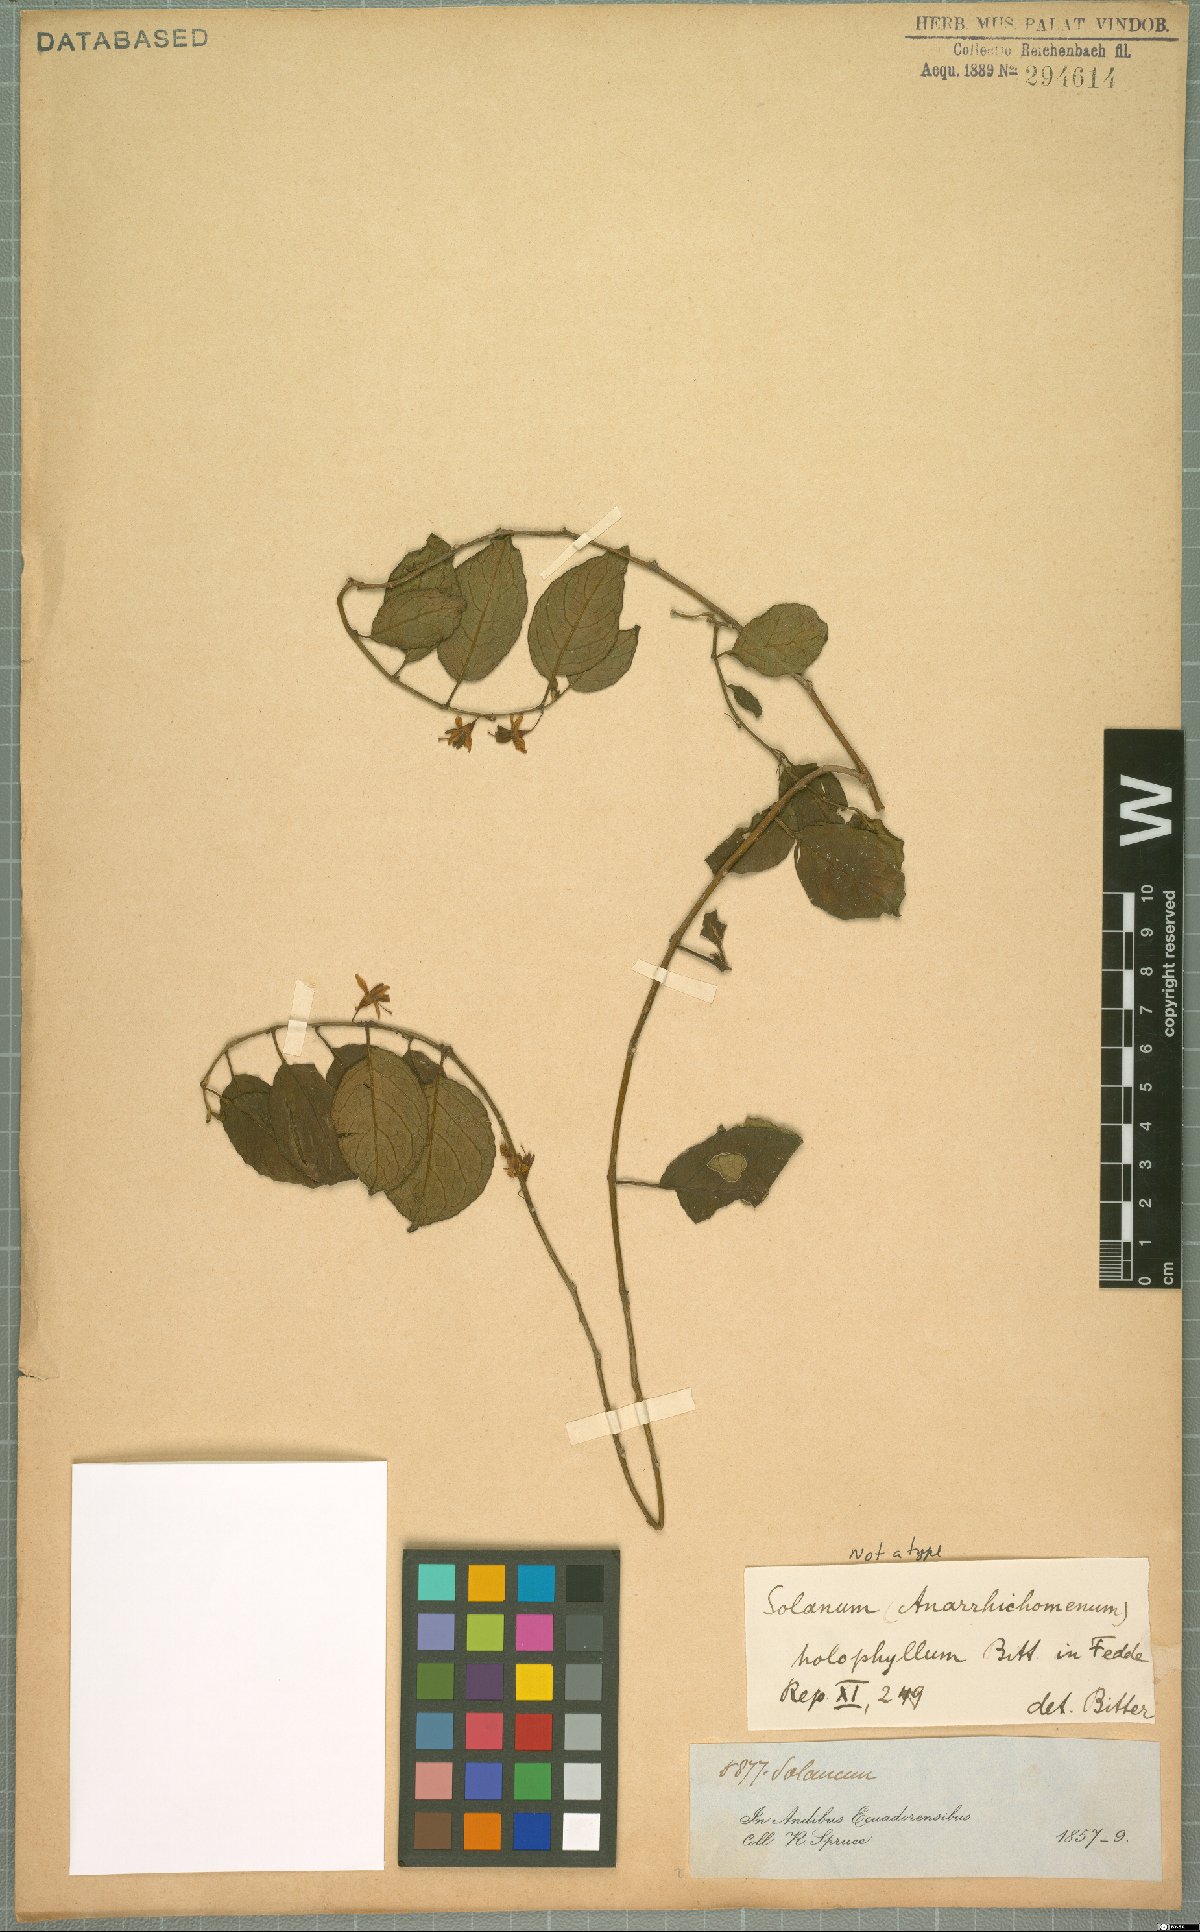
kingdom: Plantae
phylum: Tracheophyta
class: Magnoliopsida
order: Solanales
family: Solanaceae
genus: Solanum
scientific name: Solanum brevifolium
